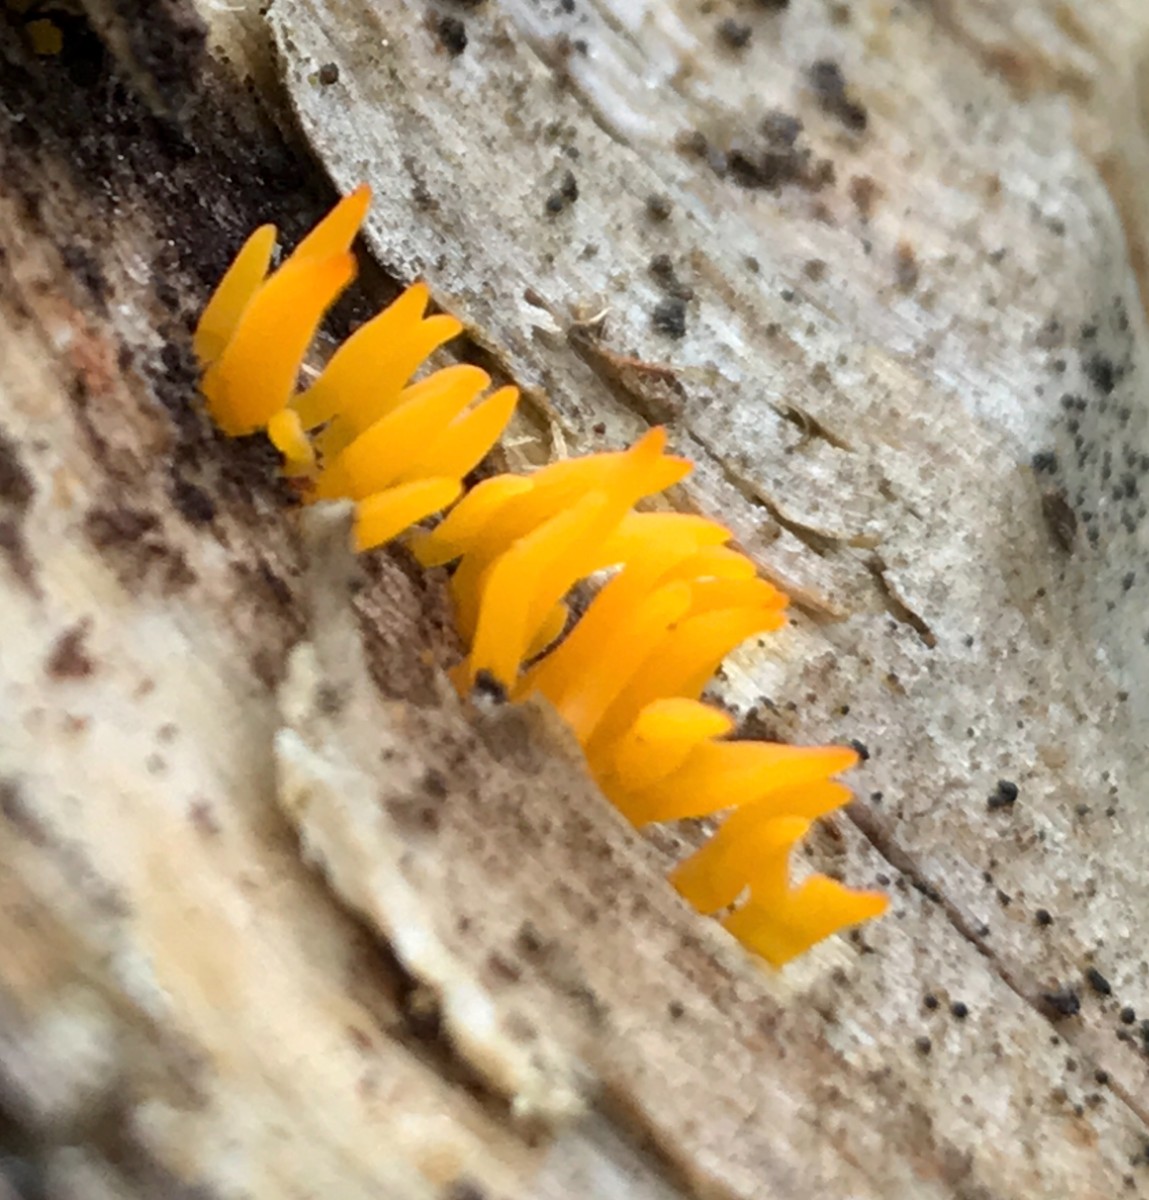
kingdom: Fungi
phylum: Basidiomycota
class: Dacrymycetes
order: Dacrymycetales
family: Dacrymycetaceae
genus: Calocera
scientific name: Calocera cornea
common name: liden guldgaffel
